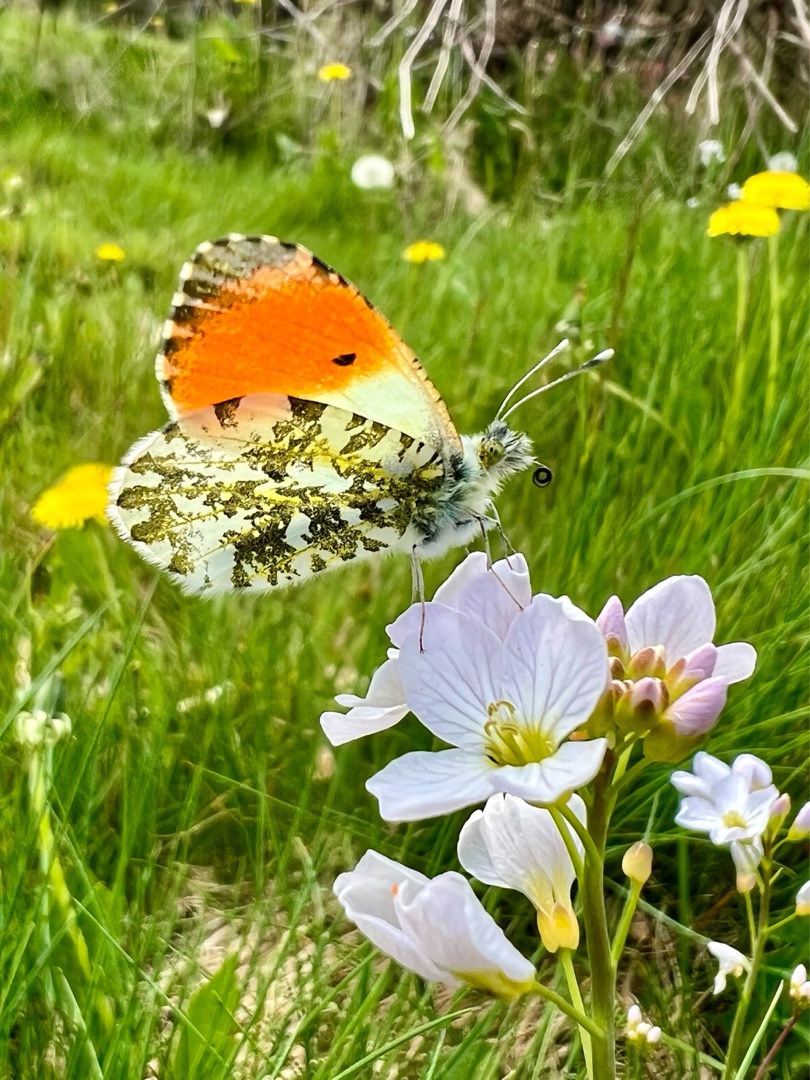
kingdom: Animalia
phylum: Arthropoda
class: Insecta
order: Lepidoptera
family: Pieridae
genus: Anthocharis
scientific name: Anthocharis cardamines
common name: Aurora
